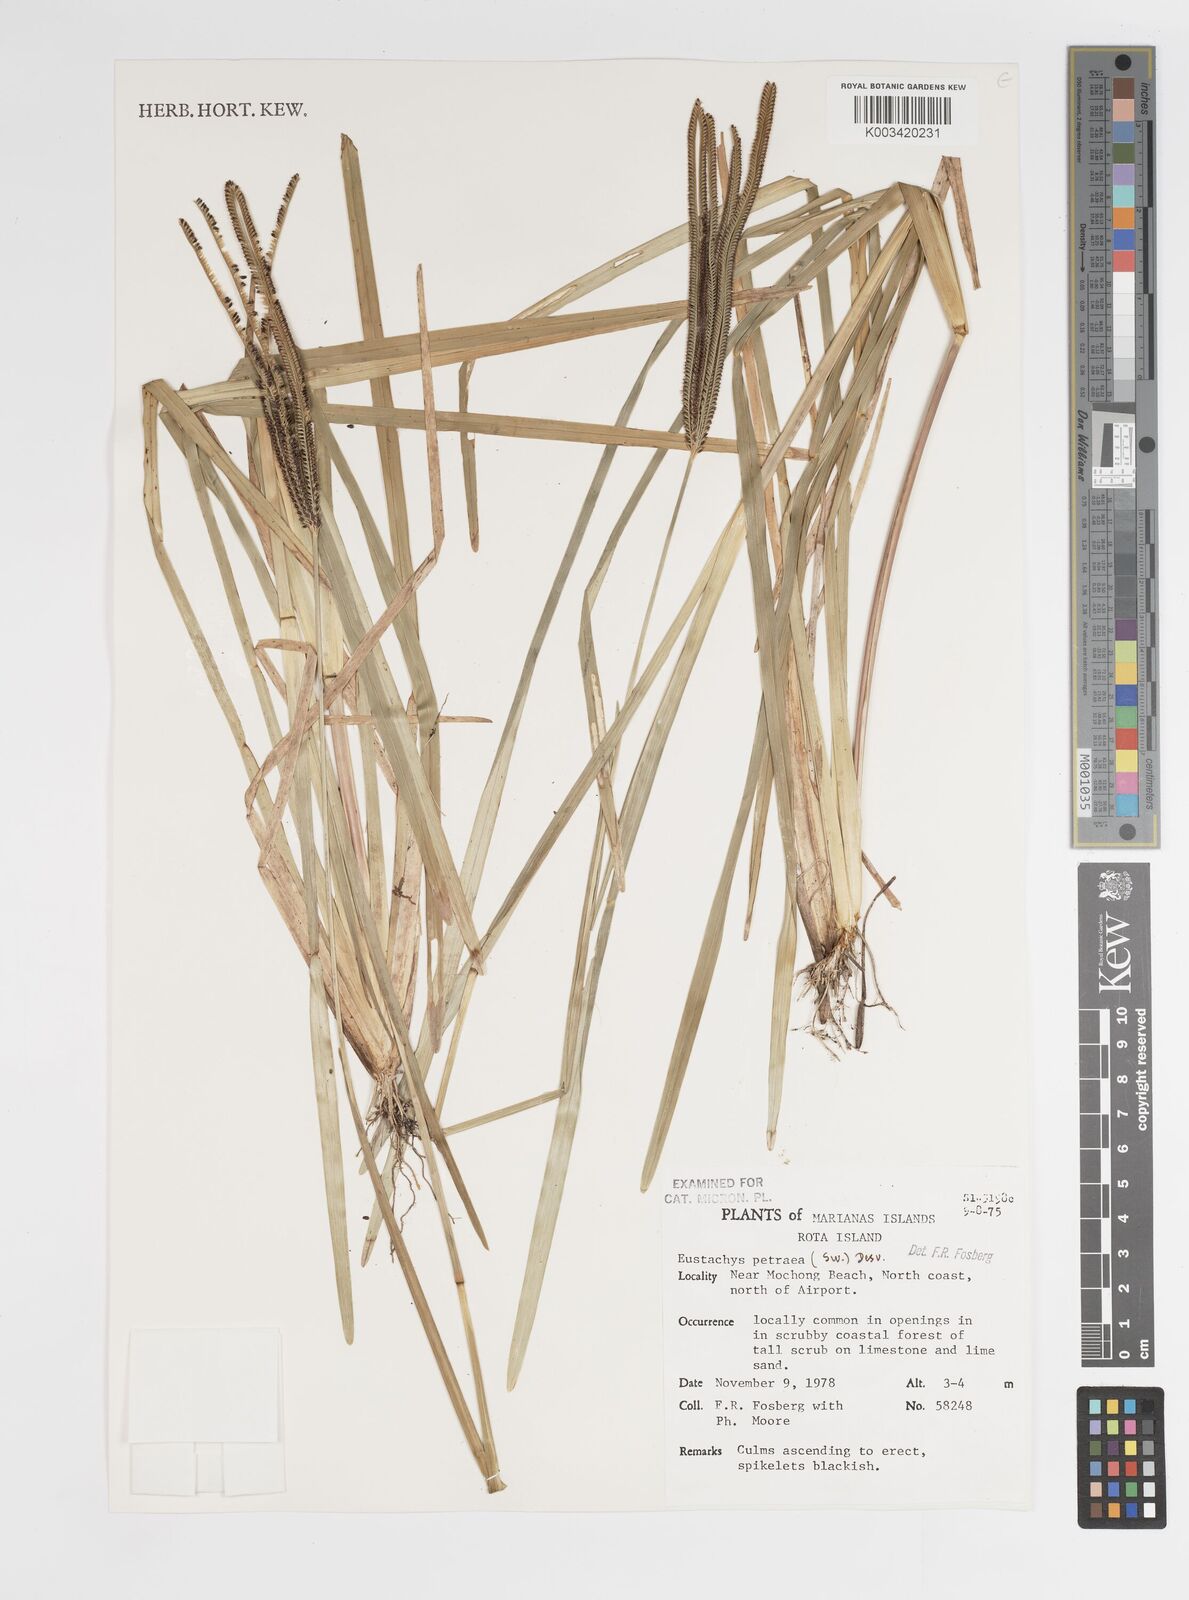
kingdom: Plantae
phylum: Tracheophyta
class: Liliopsida
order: Poales
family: Poaceae
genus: Eustachys
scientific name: Eustachys petraea
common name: Pinewoods fingergrass
